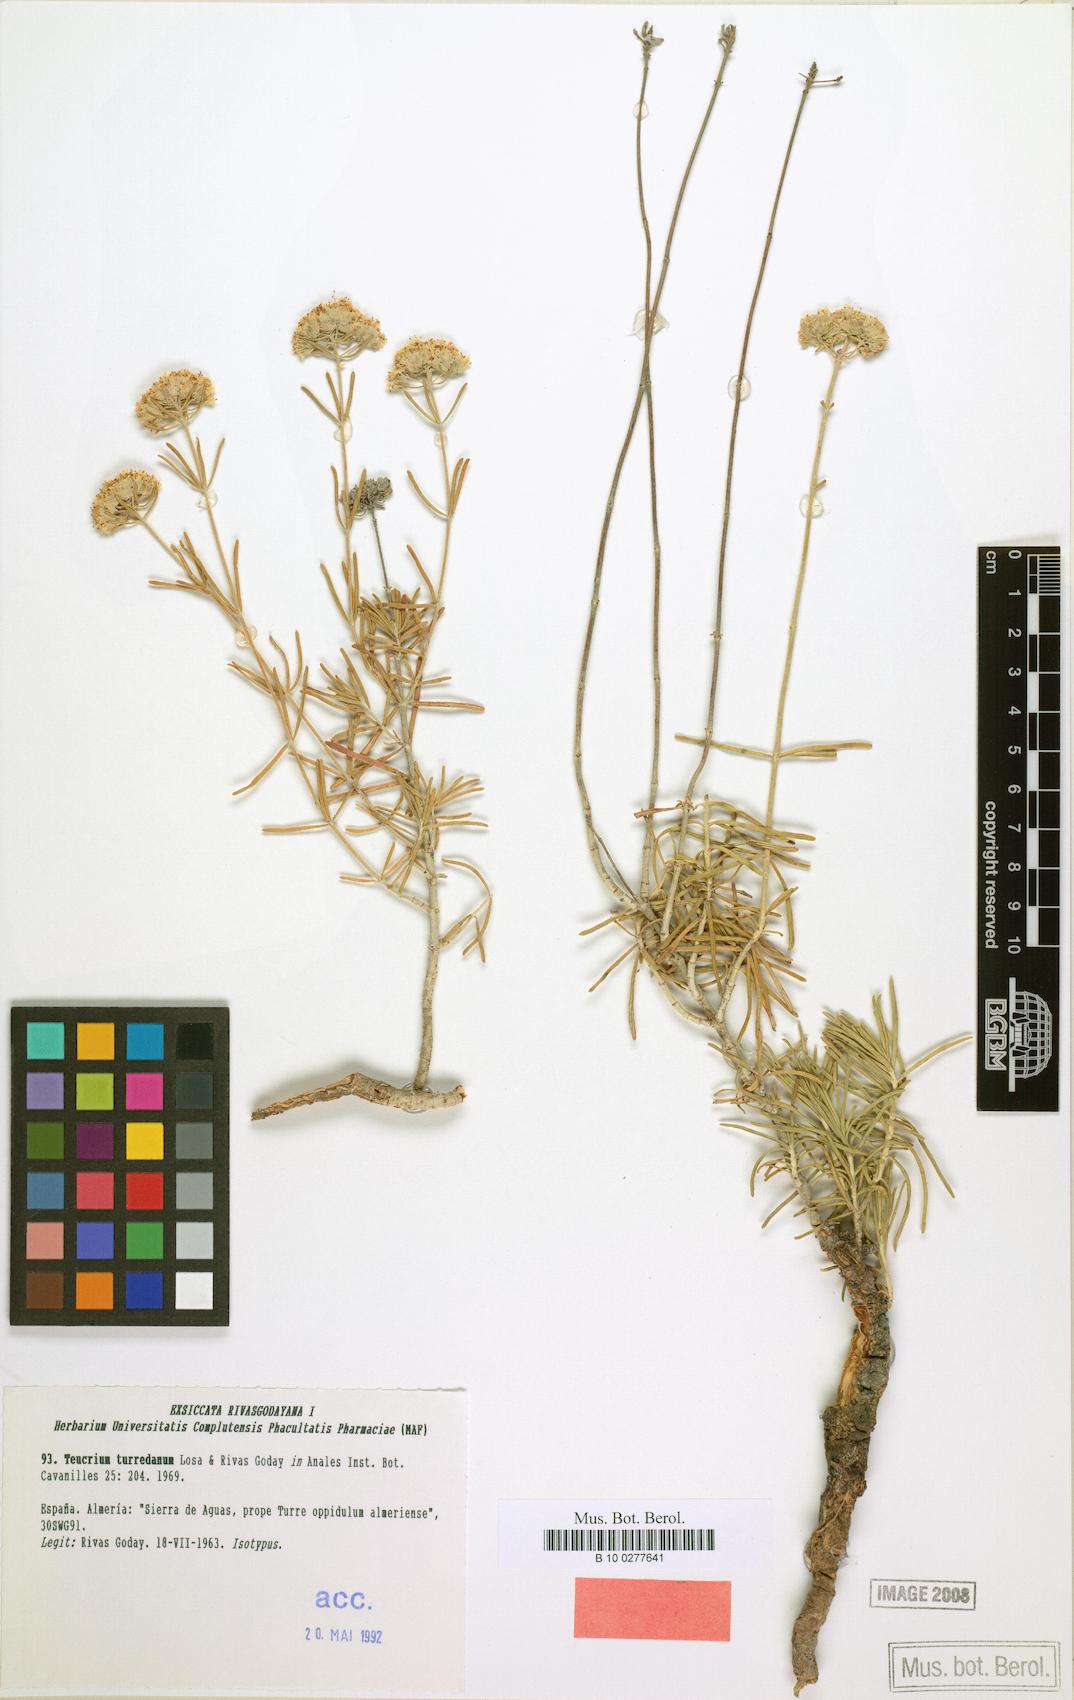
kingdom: Plantae
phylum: Tracheophyta
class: Magnoliopsida
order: Lamiales
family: Lamiaceae
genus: Teucrium
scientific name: Teucrium turredanum
